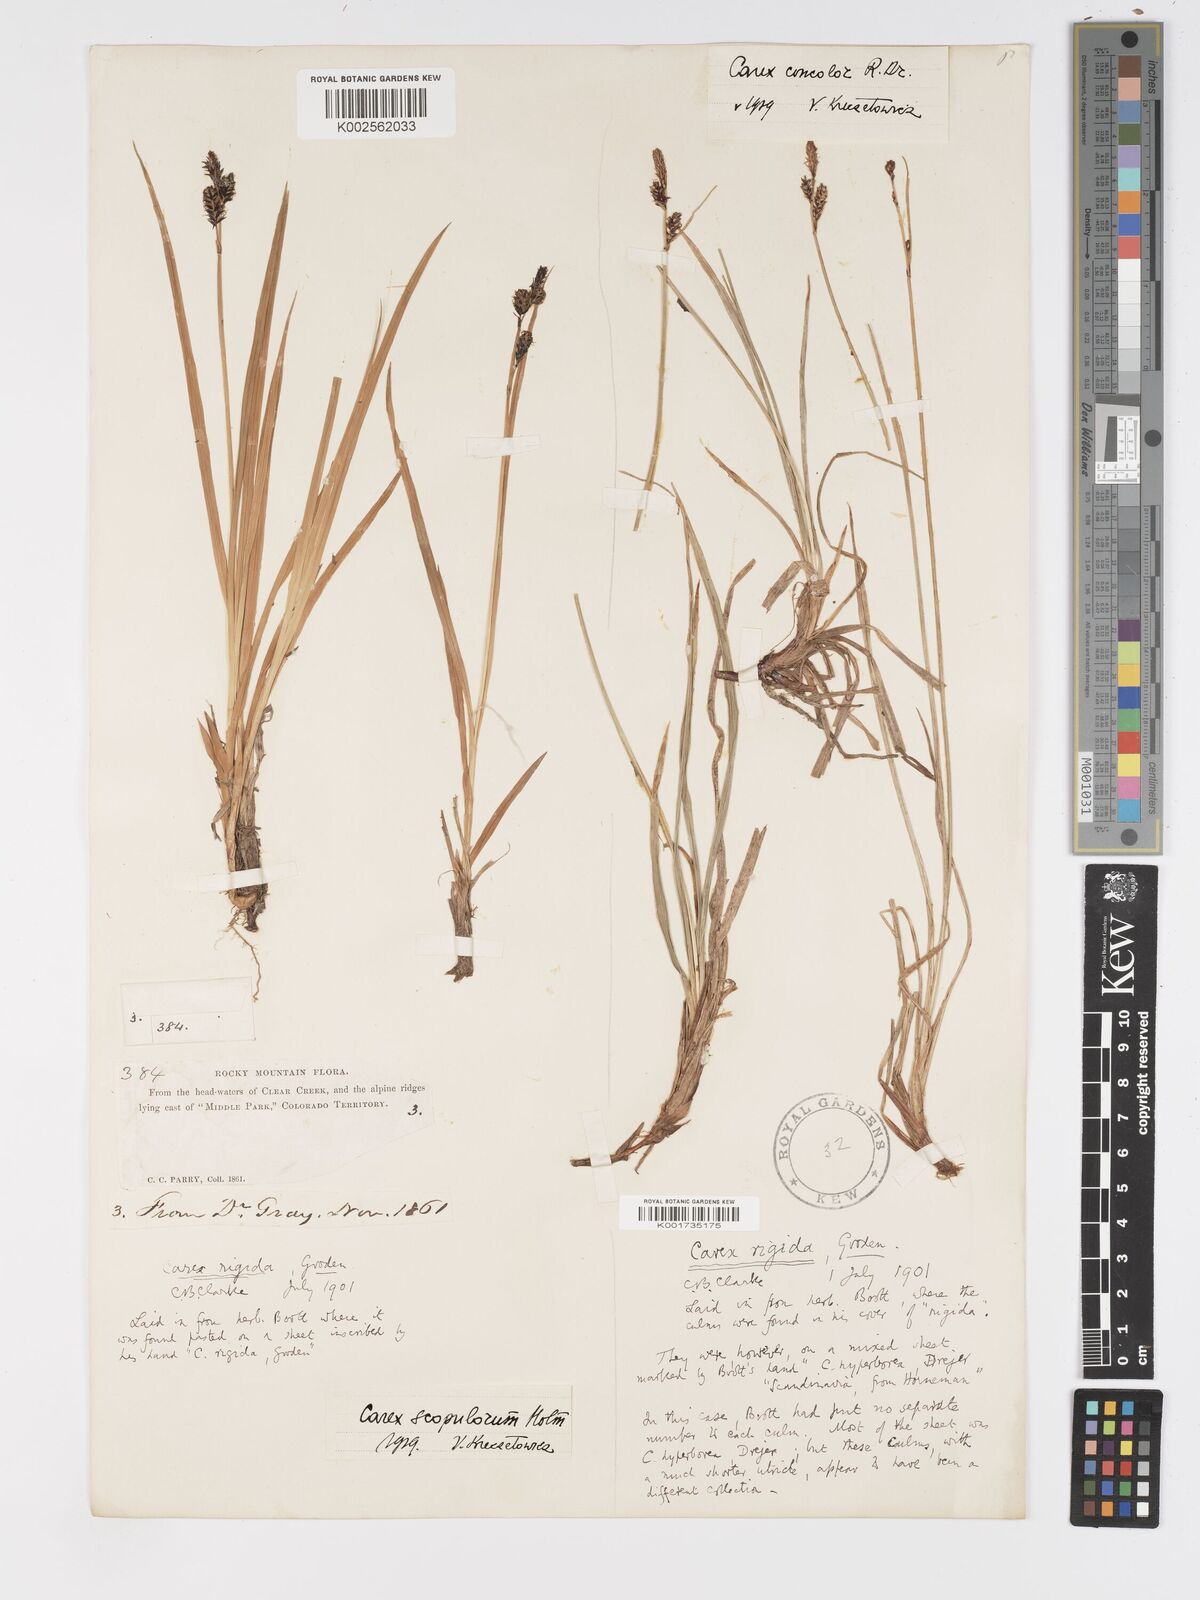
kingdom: Plantae
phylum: Tracheophyta
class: Liliopsida
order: Poales
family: Cyperaceae
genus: Carex
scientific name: Carex scopulorum
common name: Holm's rocky mountain sedge
